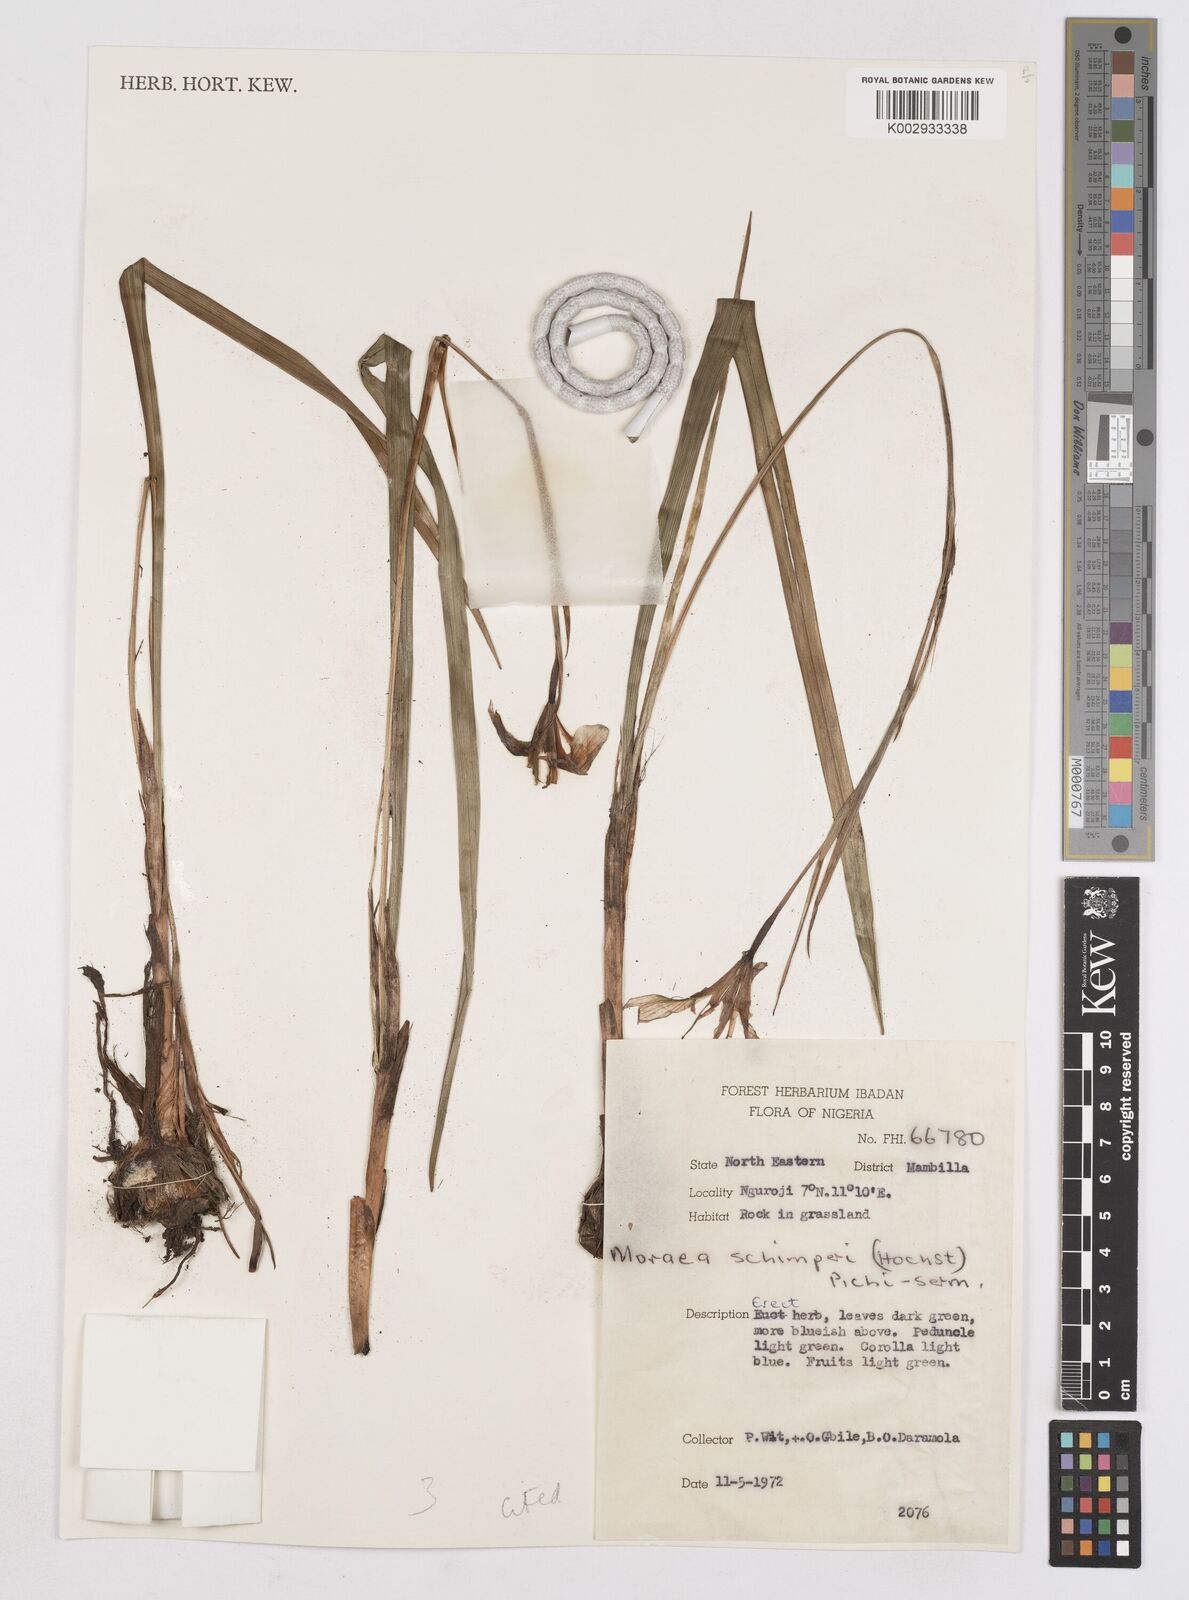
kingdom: Plantae
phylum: Tracheophyta
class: Liliopsida
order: Asparagales
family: Iridaceae
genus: Moraea
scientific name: Moraea schimperi
